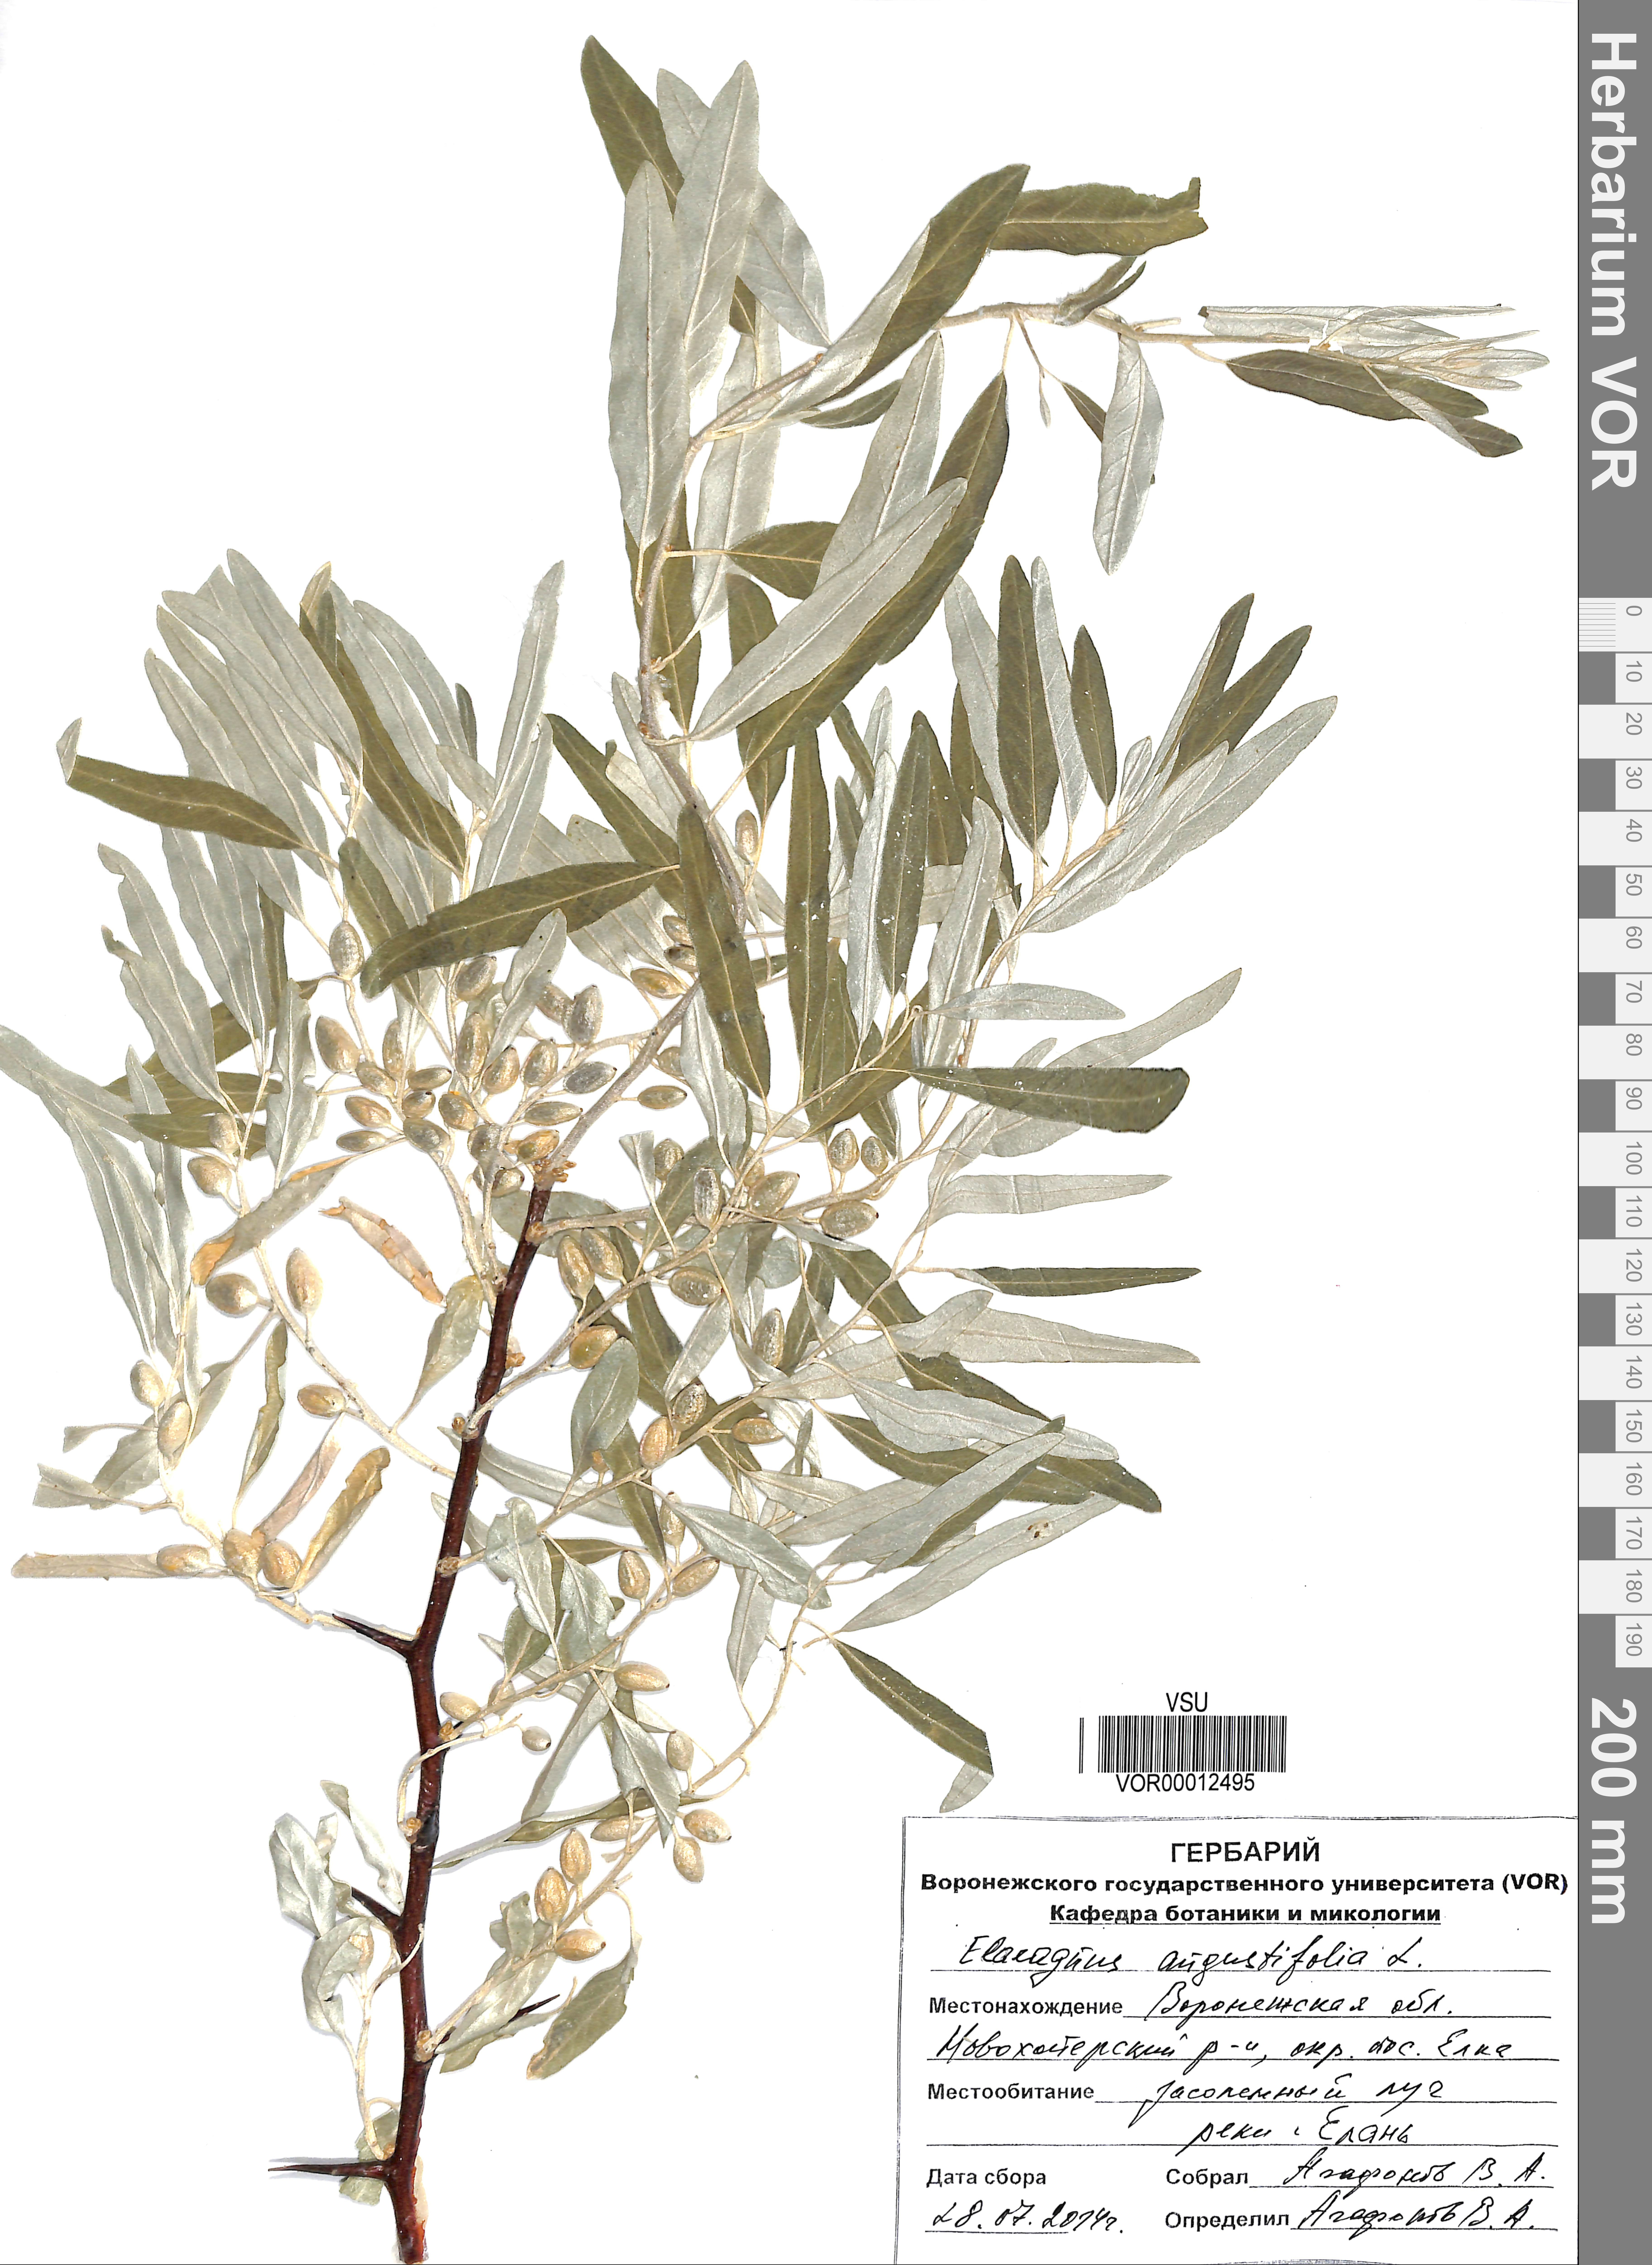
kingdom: Plantae
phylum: Tracheophyta
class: Magnoliopsida
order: Rosales
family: Elaeagnaceae
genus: Elaeagnus
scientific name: Elaeagnus angustifolia
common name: Russian olive
